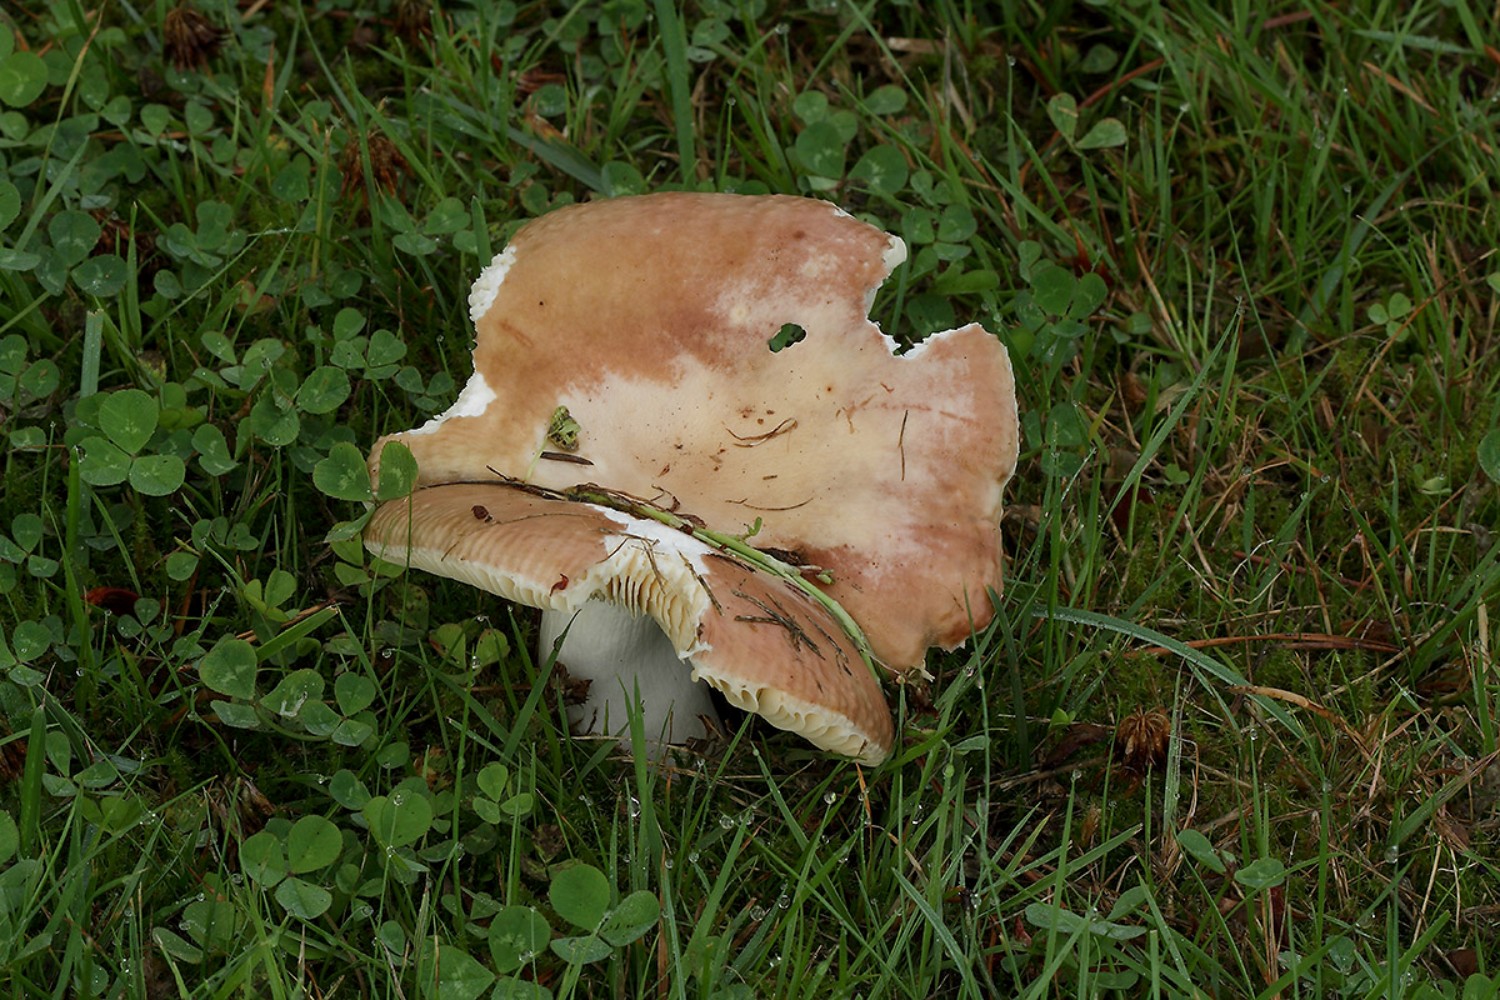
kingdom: Fungi
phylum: Basidiomycota
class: Agaricomycetes
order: Russulales
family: Russulaceae
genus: Russula
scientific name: Russula integra
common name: mandel-skørhat
